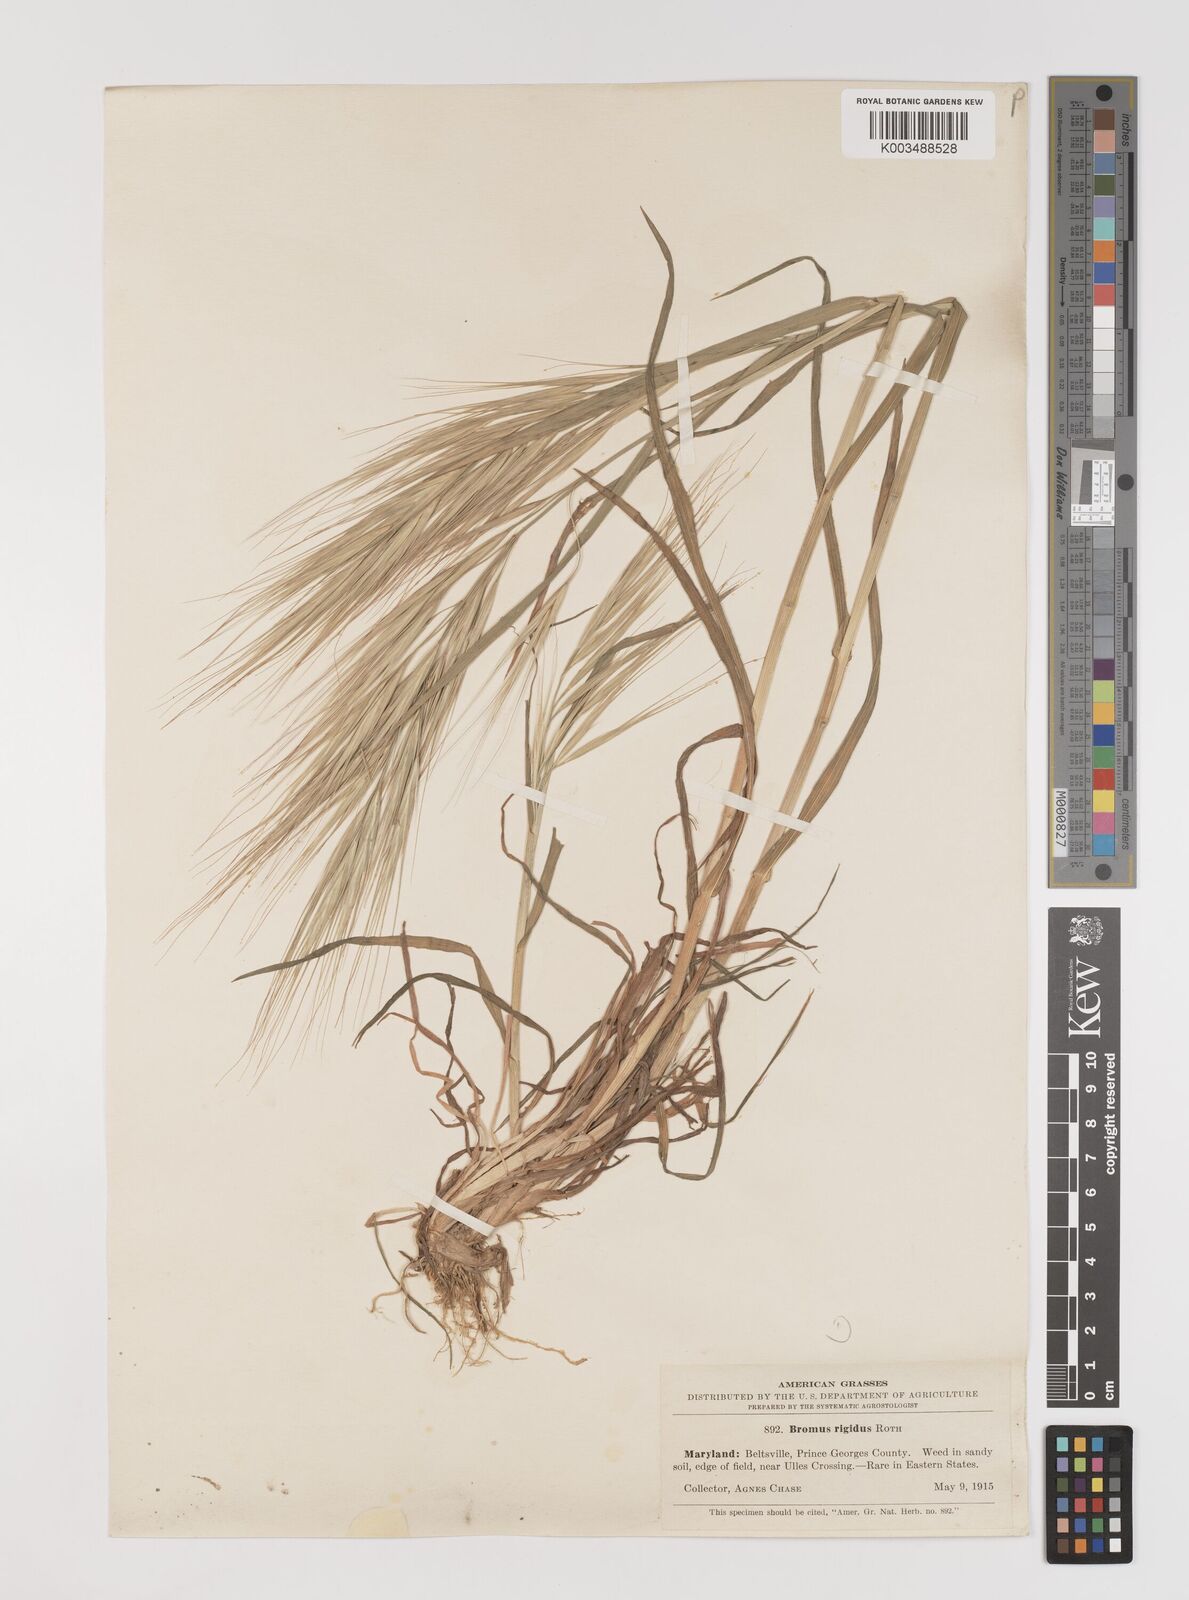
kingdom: Plantae
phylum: Tracheophyta
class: Liliopsida
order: Poales
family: Poaceae
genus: Bromus
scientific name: Bromus diandrus
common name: Ripgut brome
